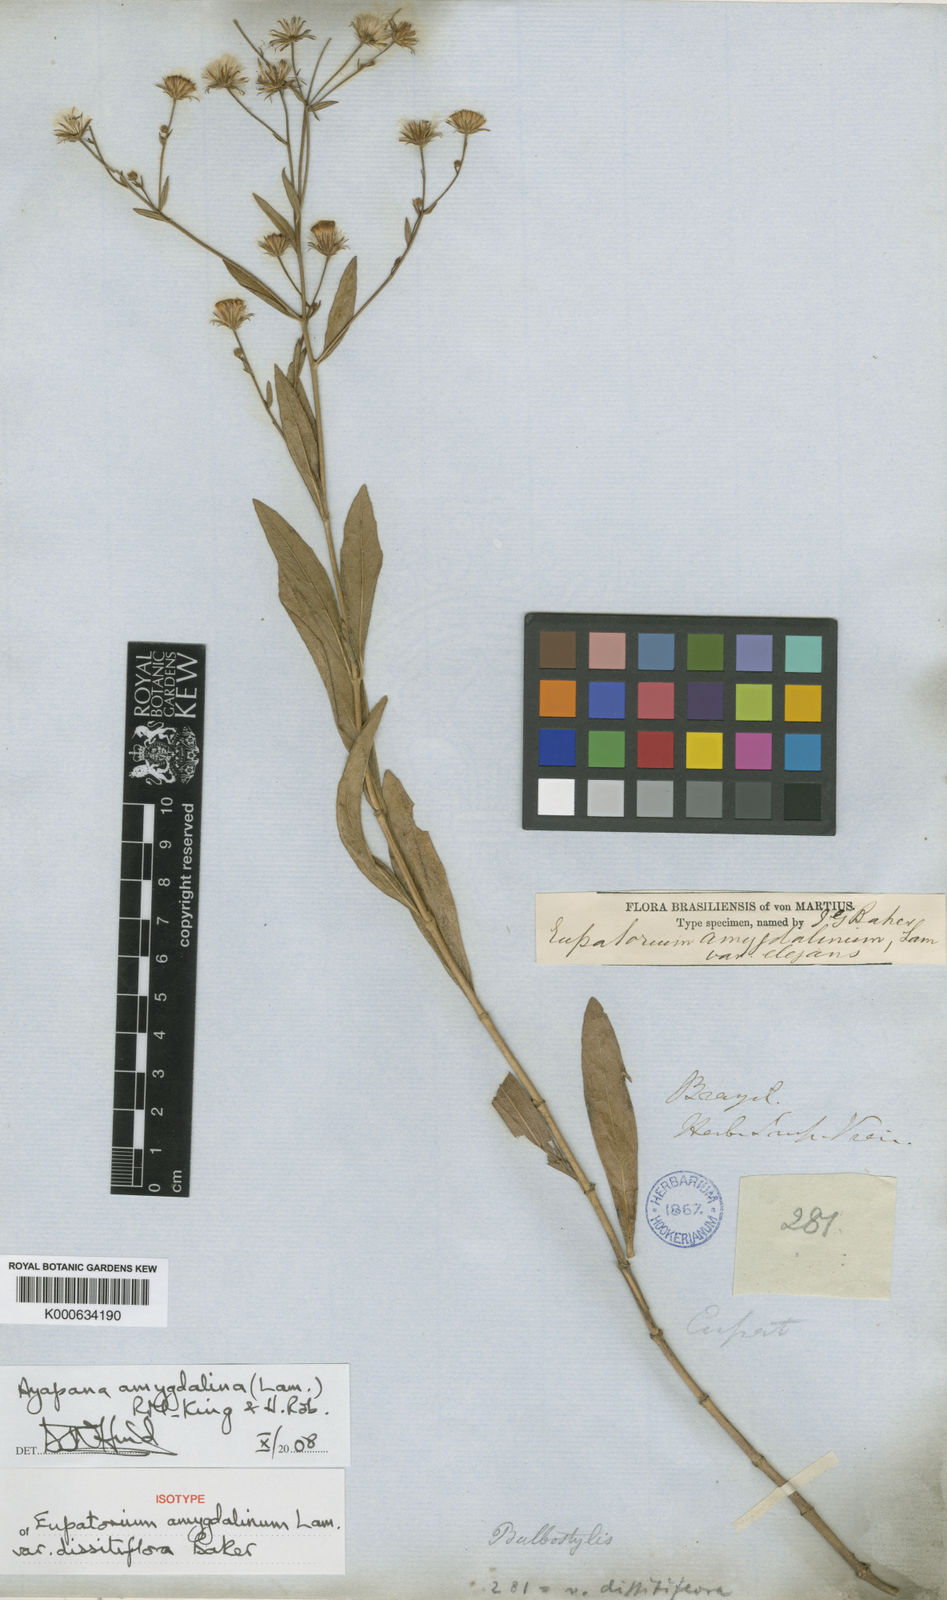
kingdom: Plantae
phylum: Tracheophyta
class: Magnoliopsida
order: Asterales
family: Asteraceae
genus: Ayapana
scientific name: Ayapana amygdalina
